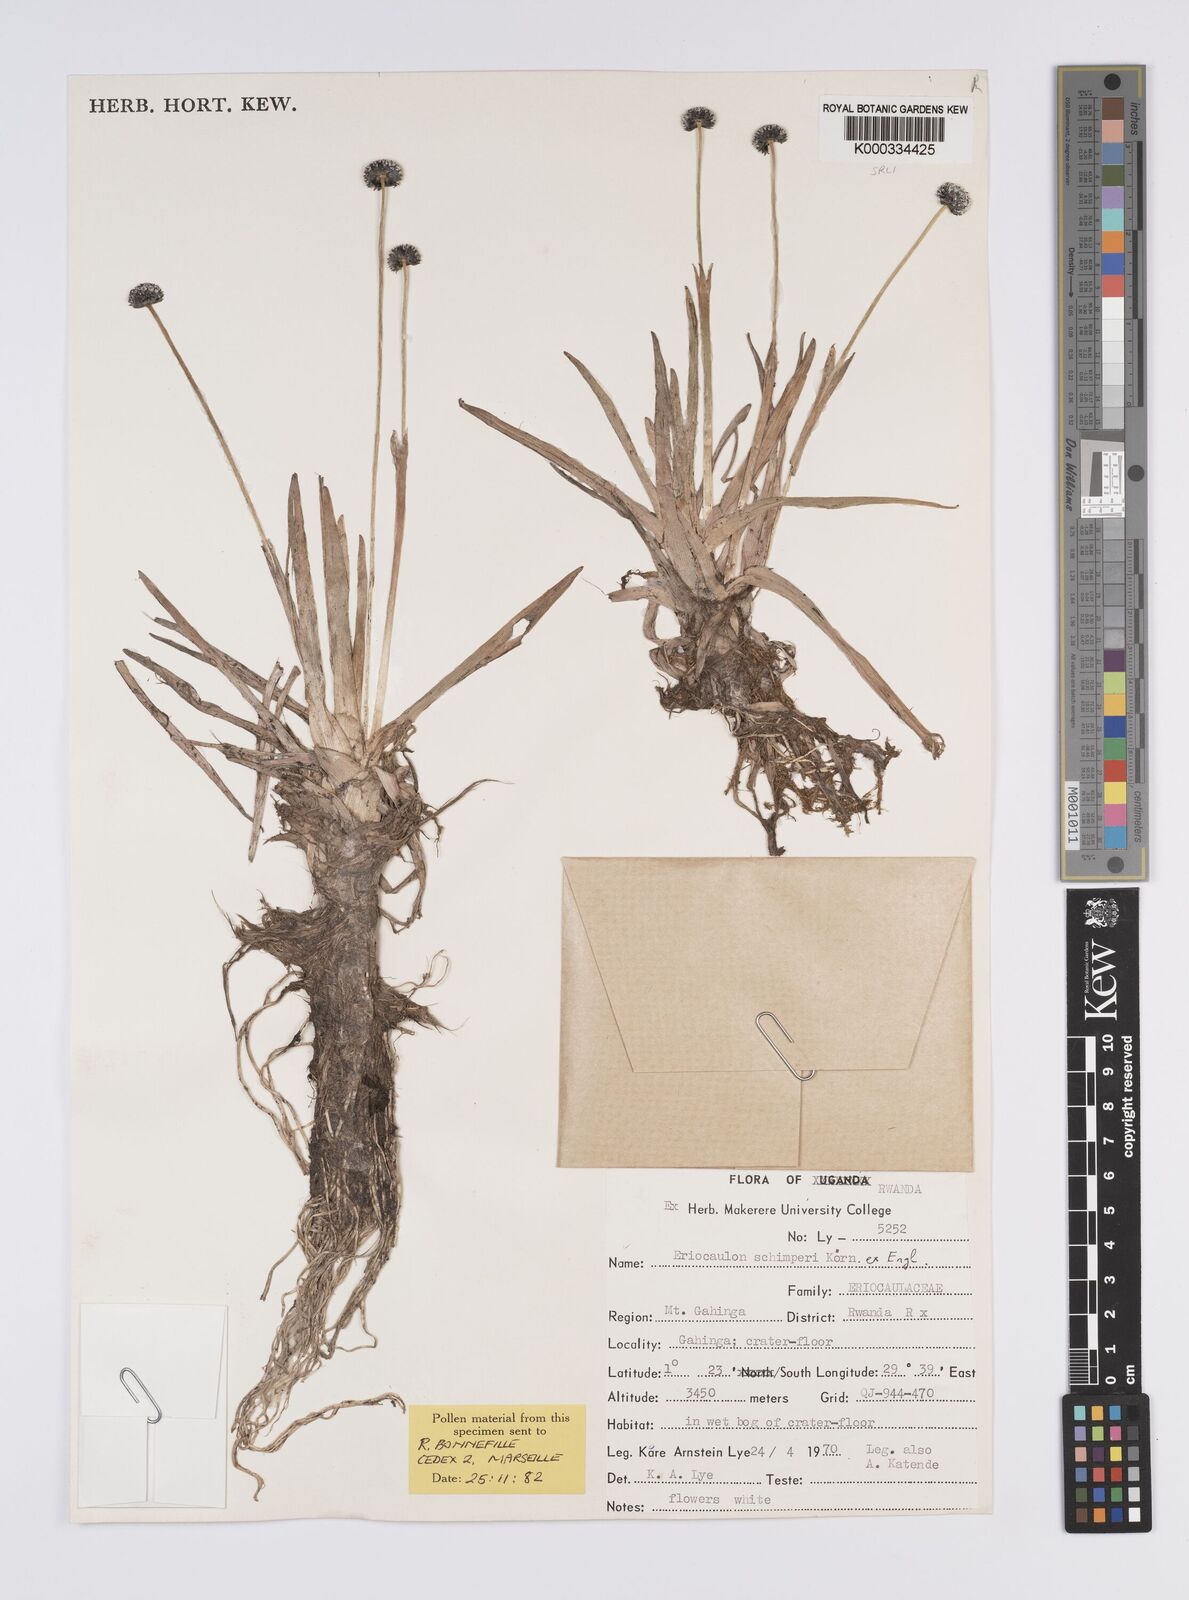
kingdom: Plantae
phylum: Tracheophyta
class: Liliopsida
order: Poales
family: Eriocaulaceae
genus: Eriocaulon
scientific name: Eriocaulon
